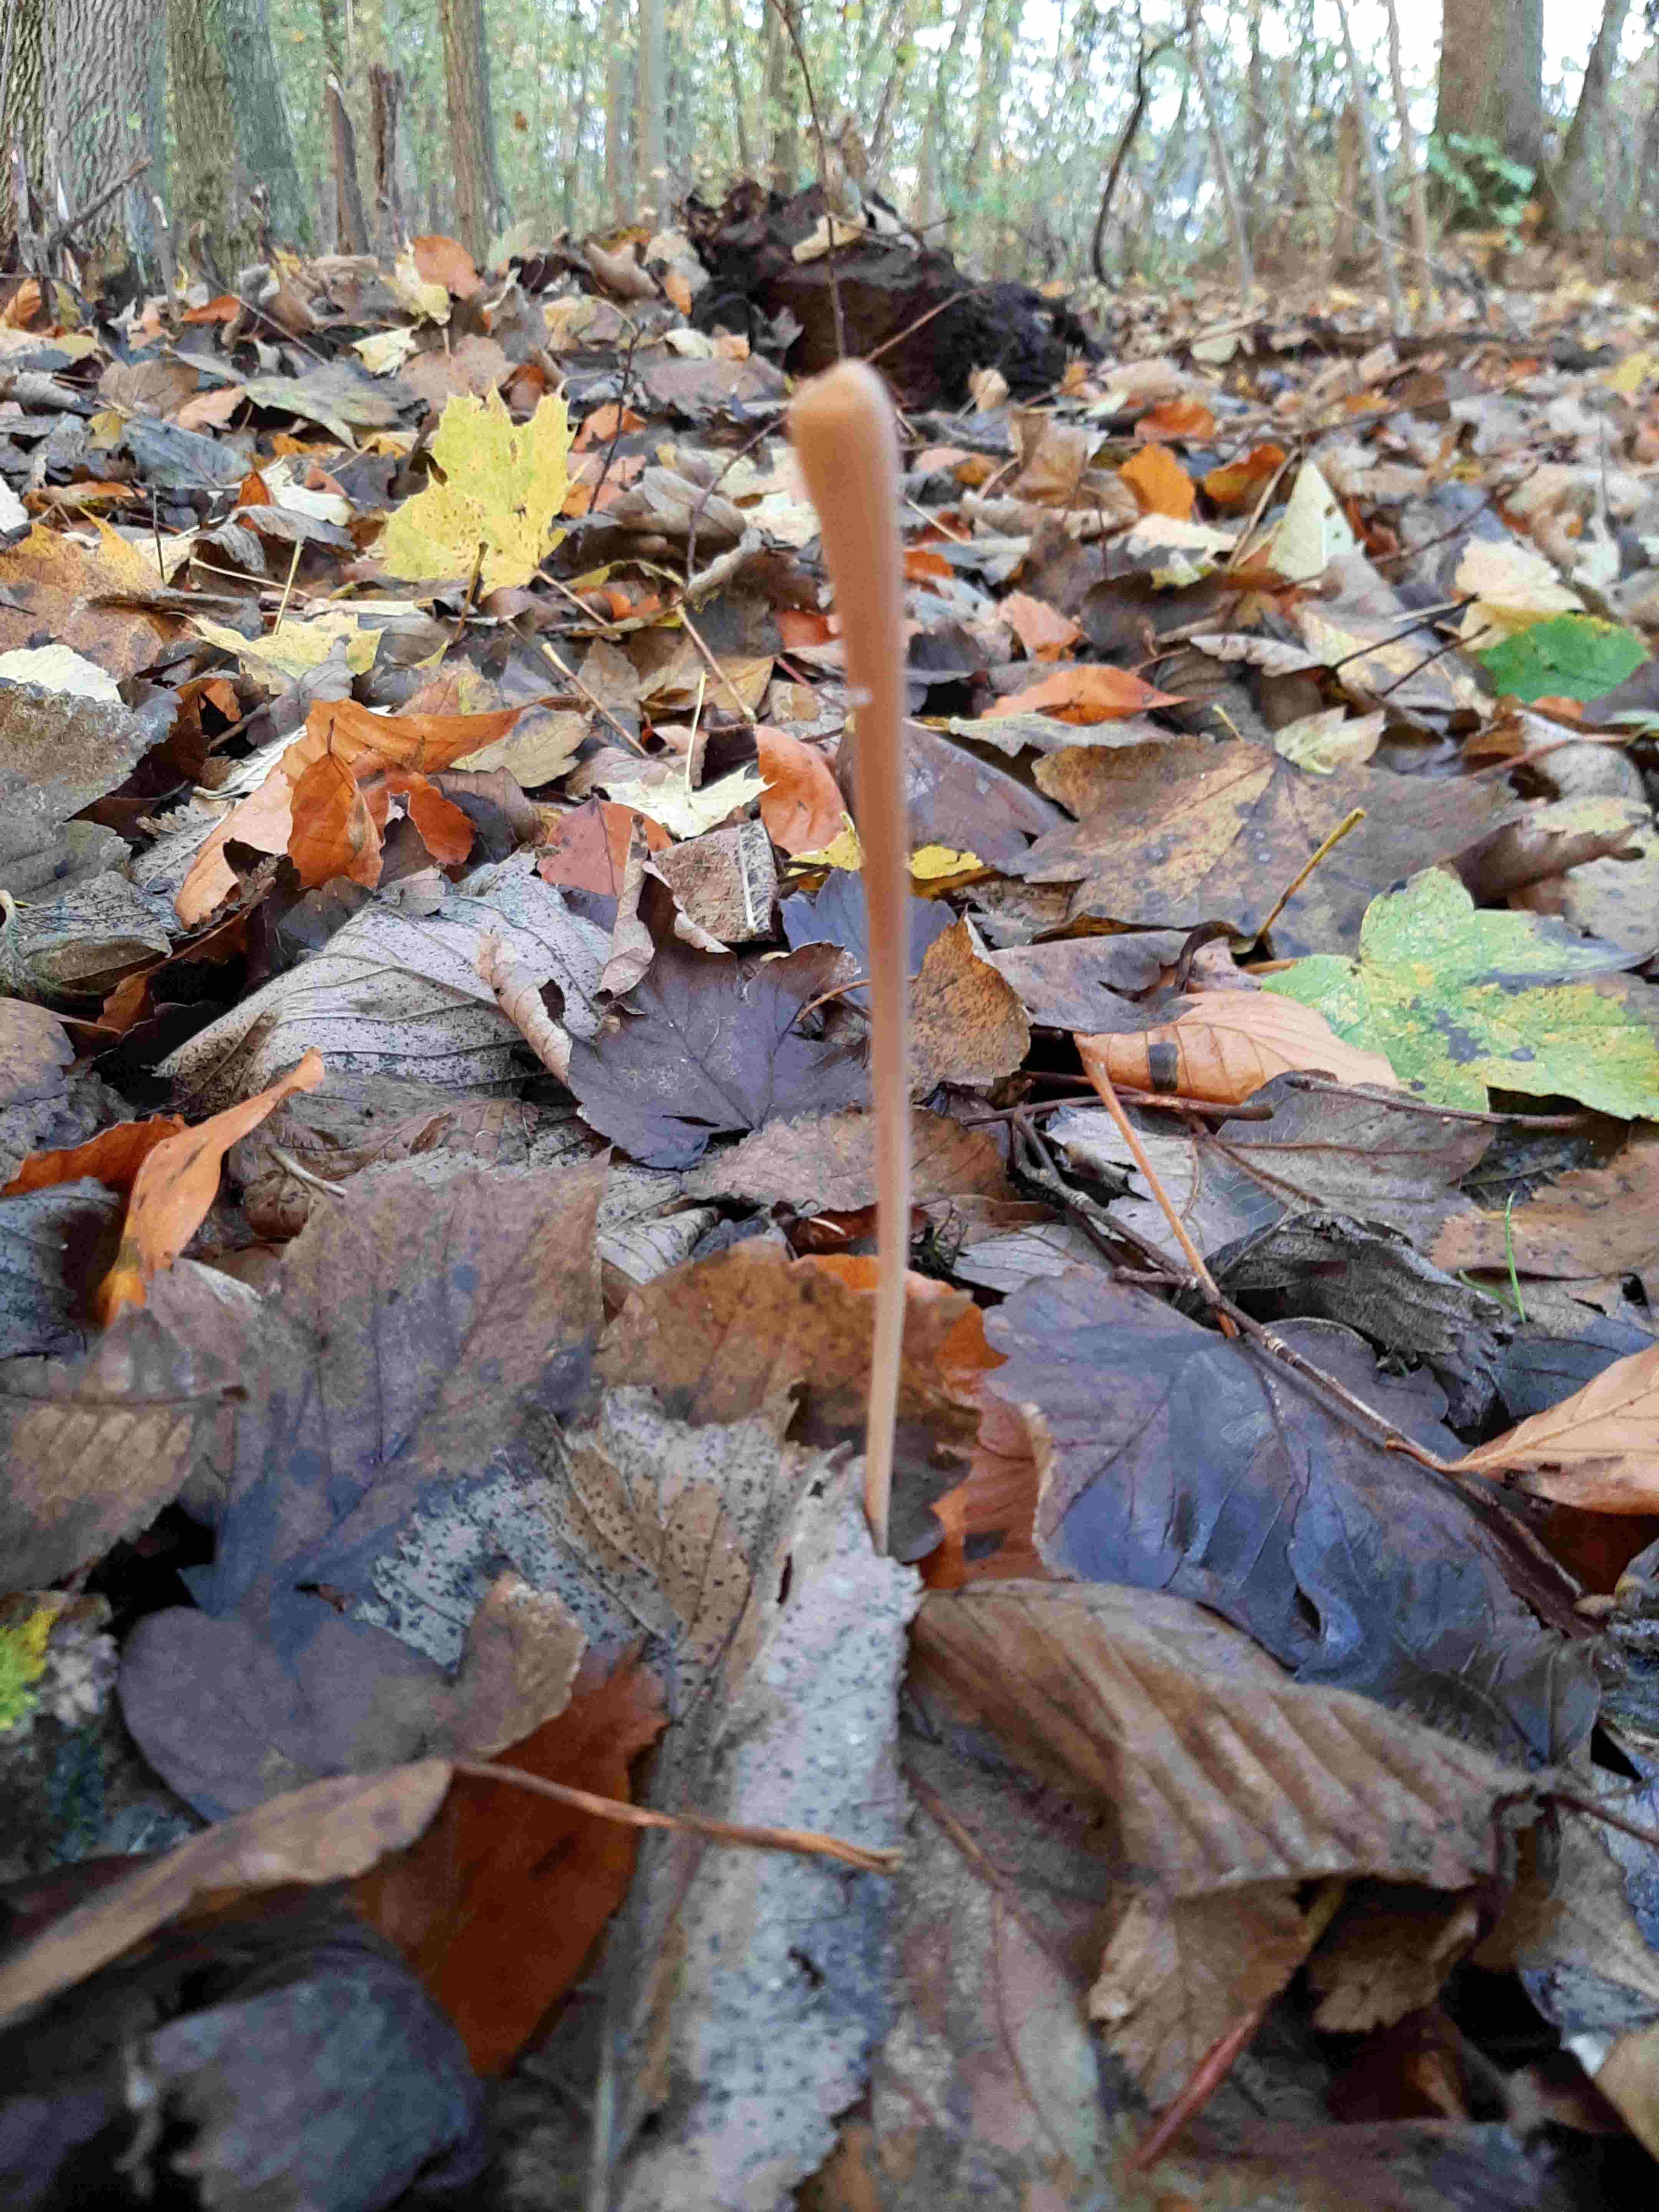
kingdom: Fungi
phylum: Basidiomycota
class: Agaricomycetes
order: Agaricales
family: Typhulaceae
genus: Typhula
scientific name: Typhula fistulosa
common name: pibet rørkølle
